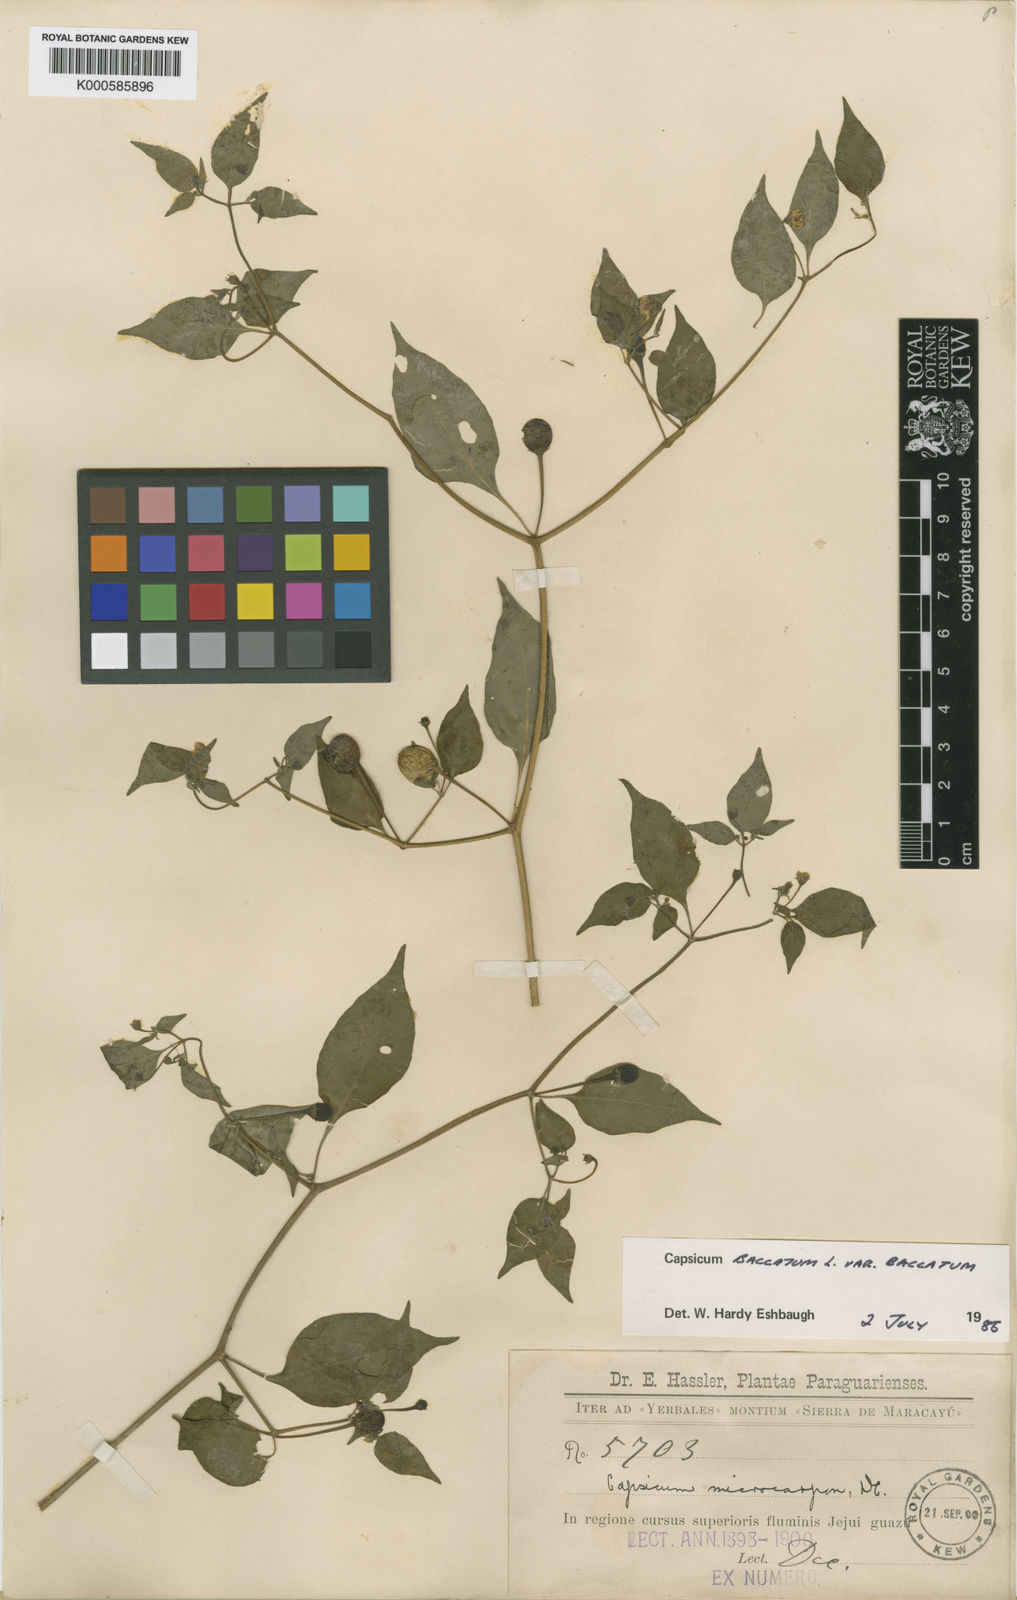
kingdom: Plantae
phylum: Tracheophyta
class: Magnoliopsida
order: Solanales
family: Solanaceae
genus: Capsicum
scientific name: Capsicum
